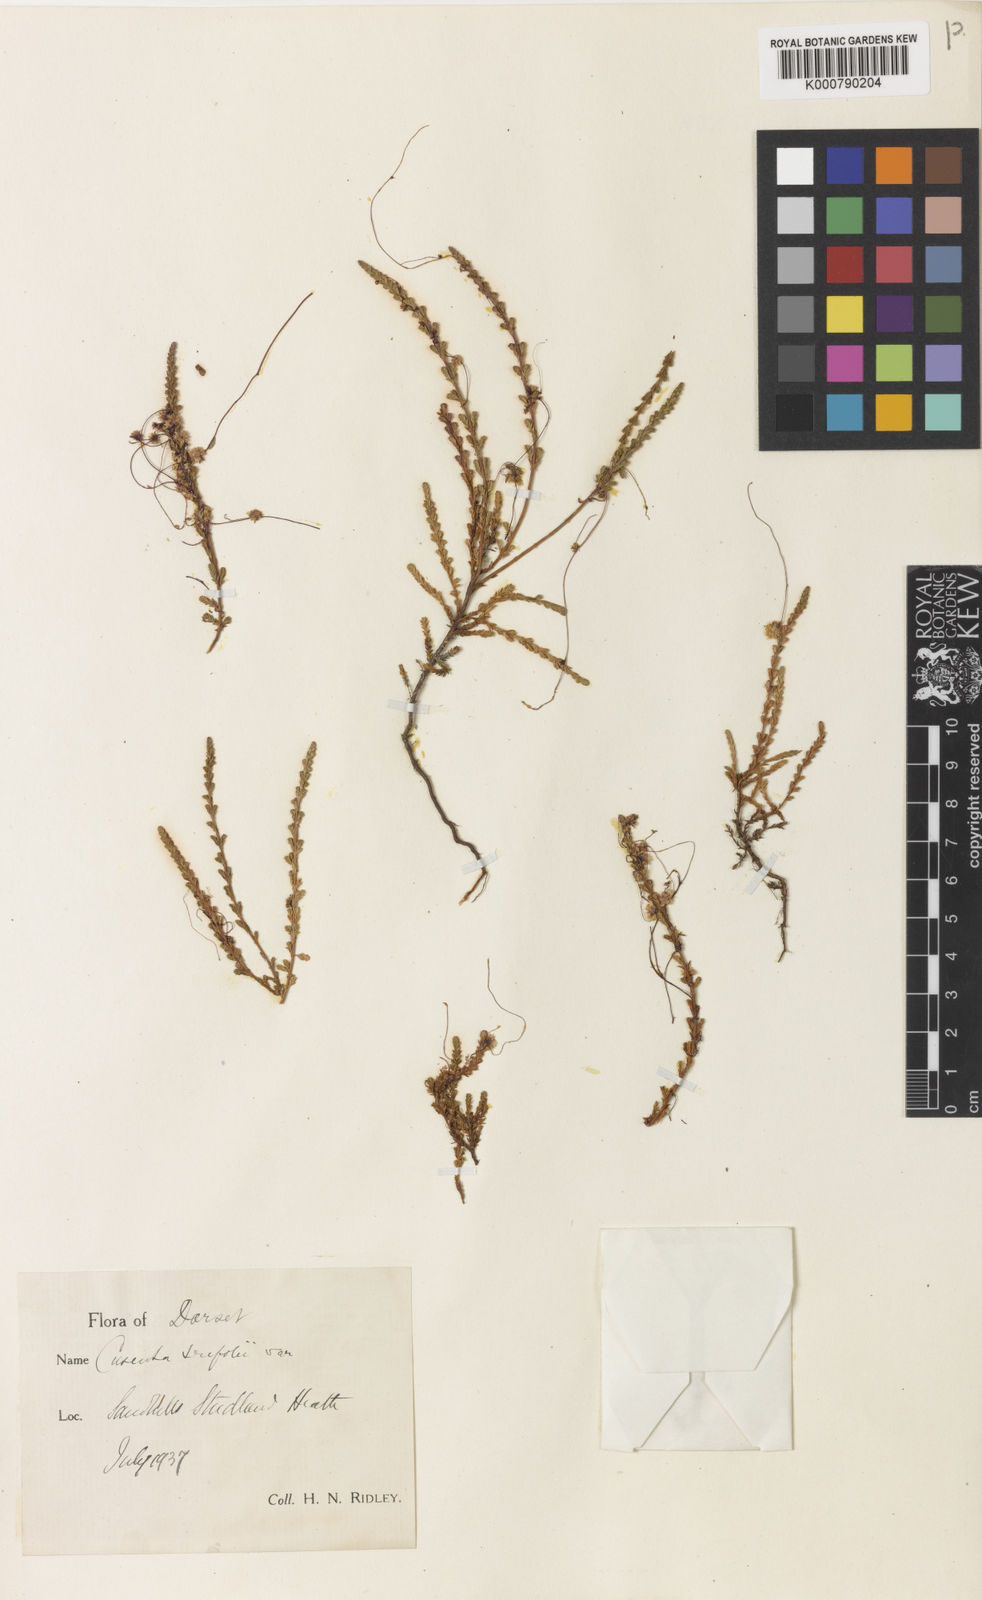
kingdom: Plantae
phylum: Tracheophyta
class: Magnoliopsida
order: Solanales
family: Convolvulaceae
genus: Cuscuta
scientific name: Cuscuta epithymum
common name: Clover dodder
